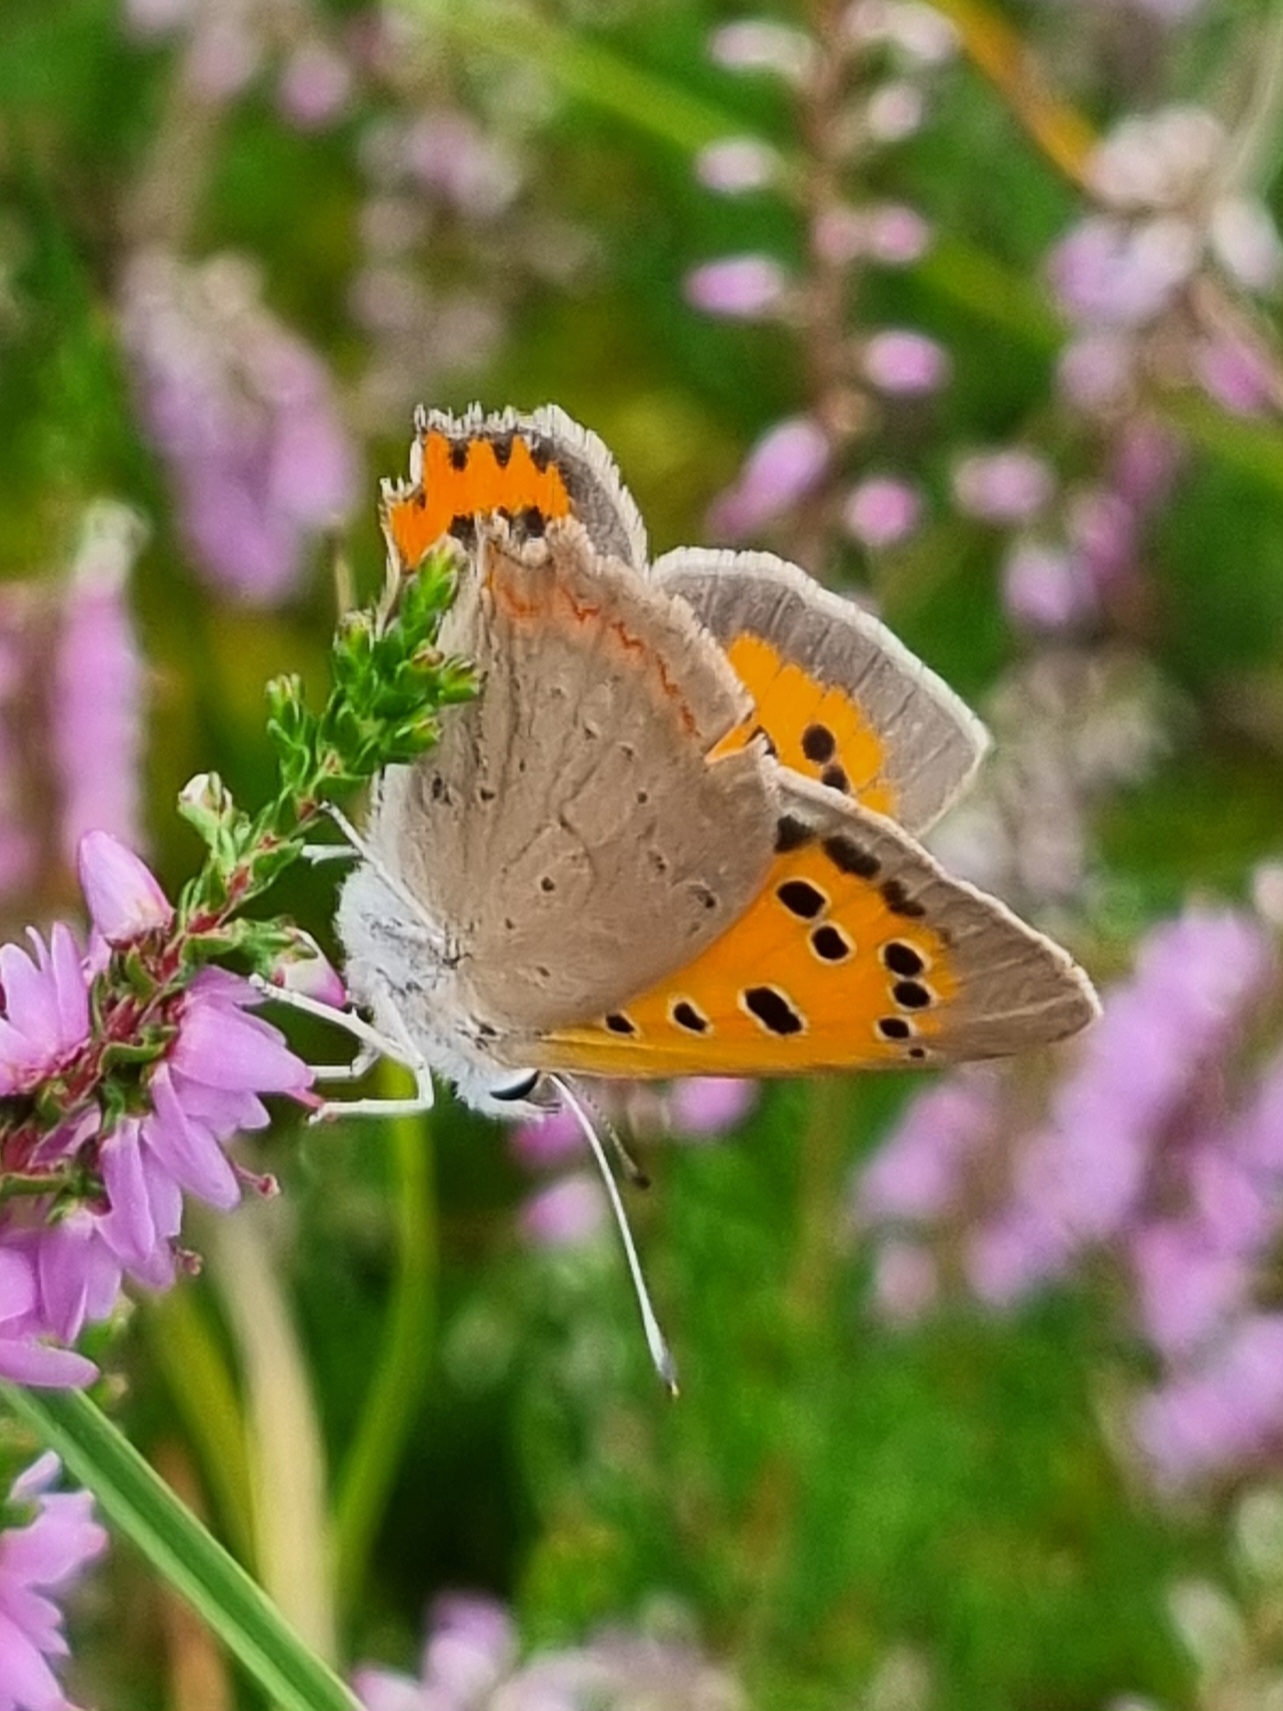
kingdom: Animalia
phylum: Arthropoda
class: Insecta
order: Lepidoptera
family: Lycaenidae
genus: Lycaena
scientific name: Lycaena phlaeas
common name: Lille ildfugl
